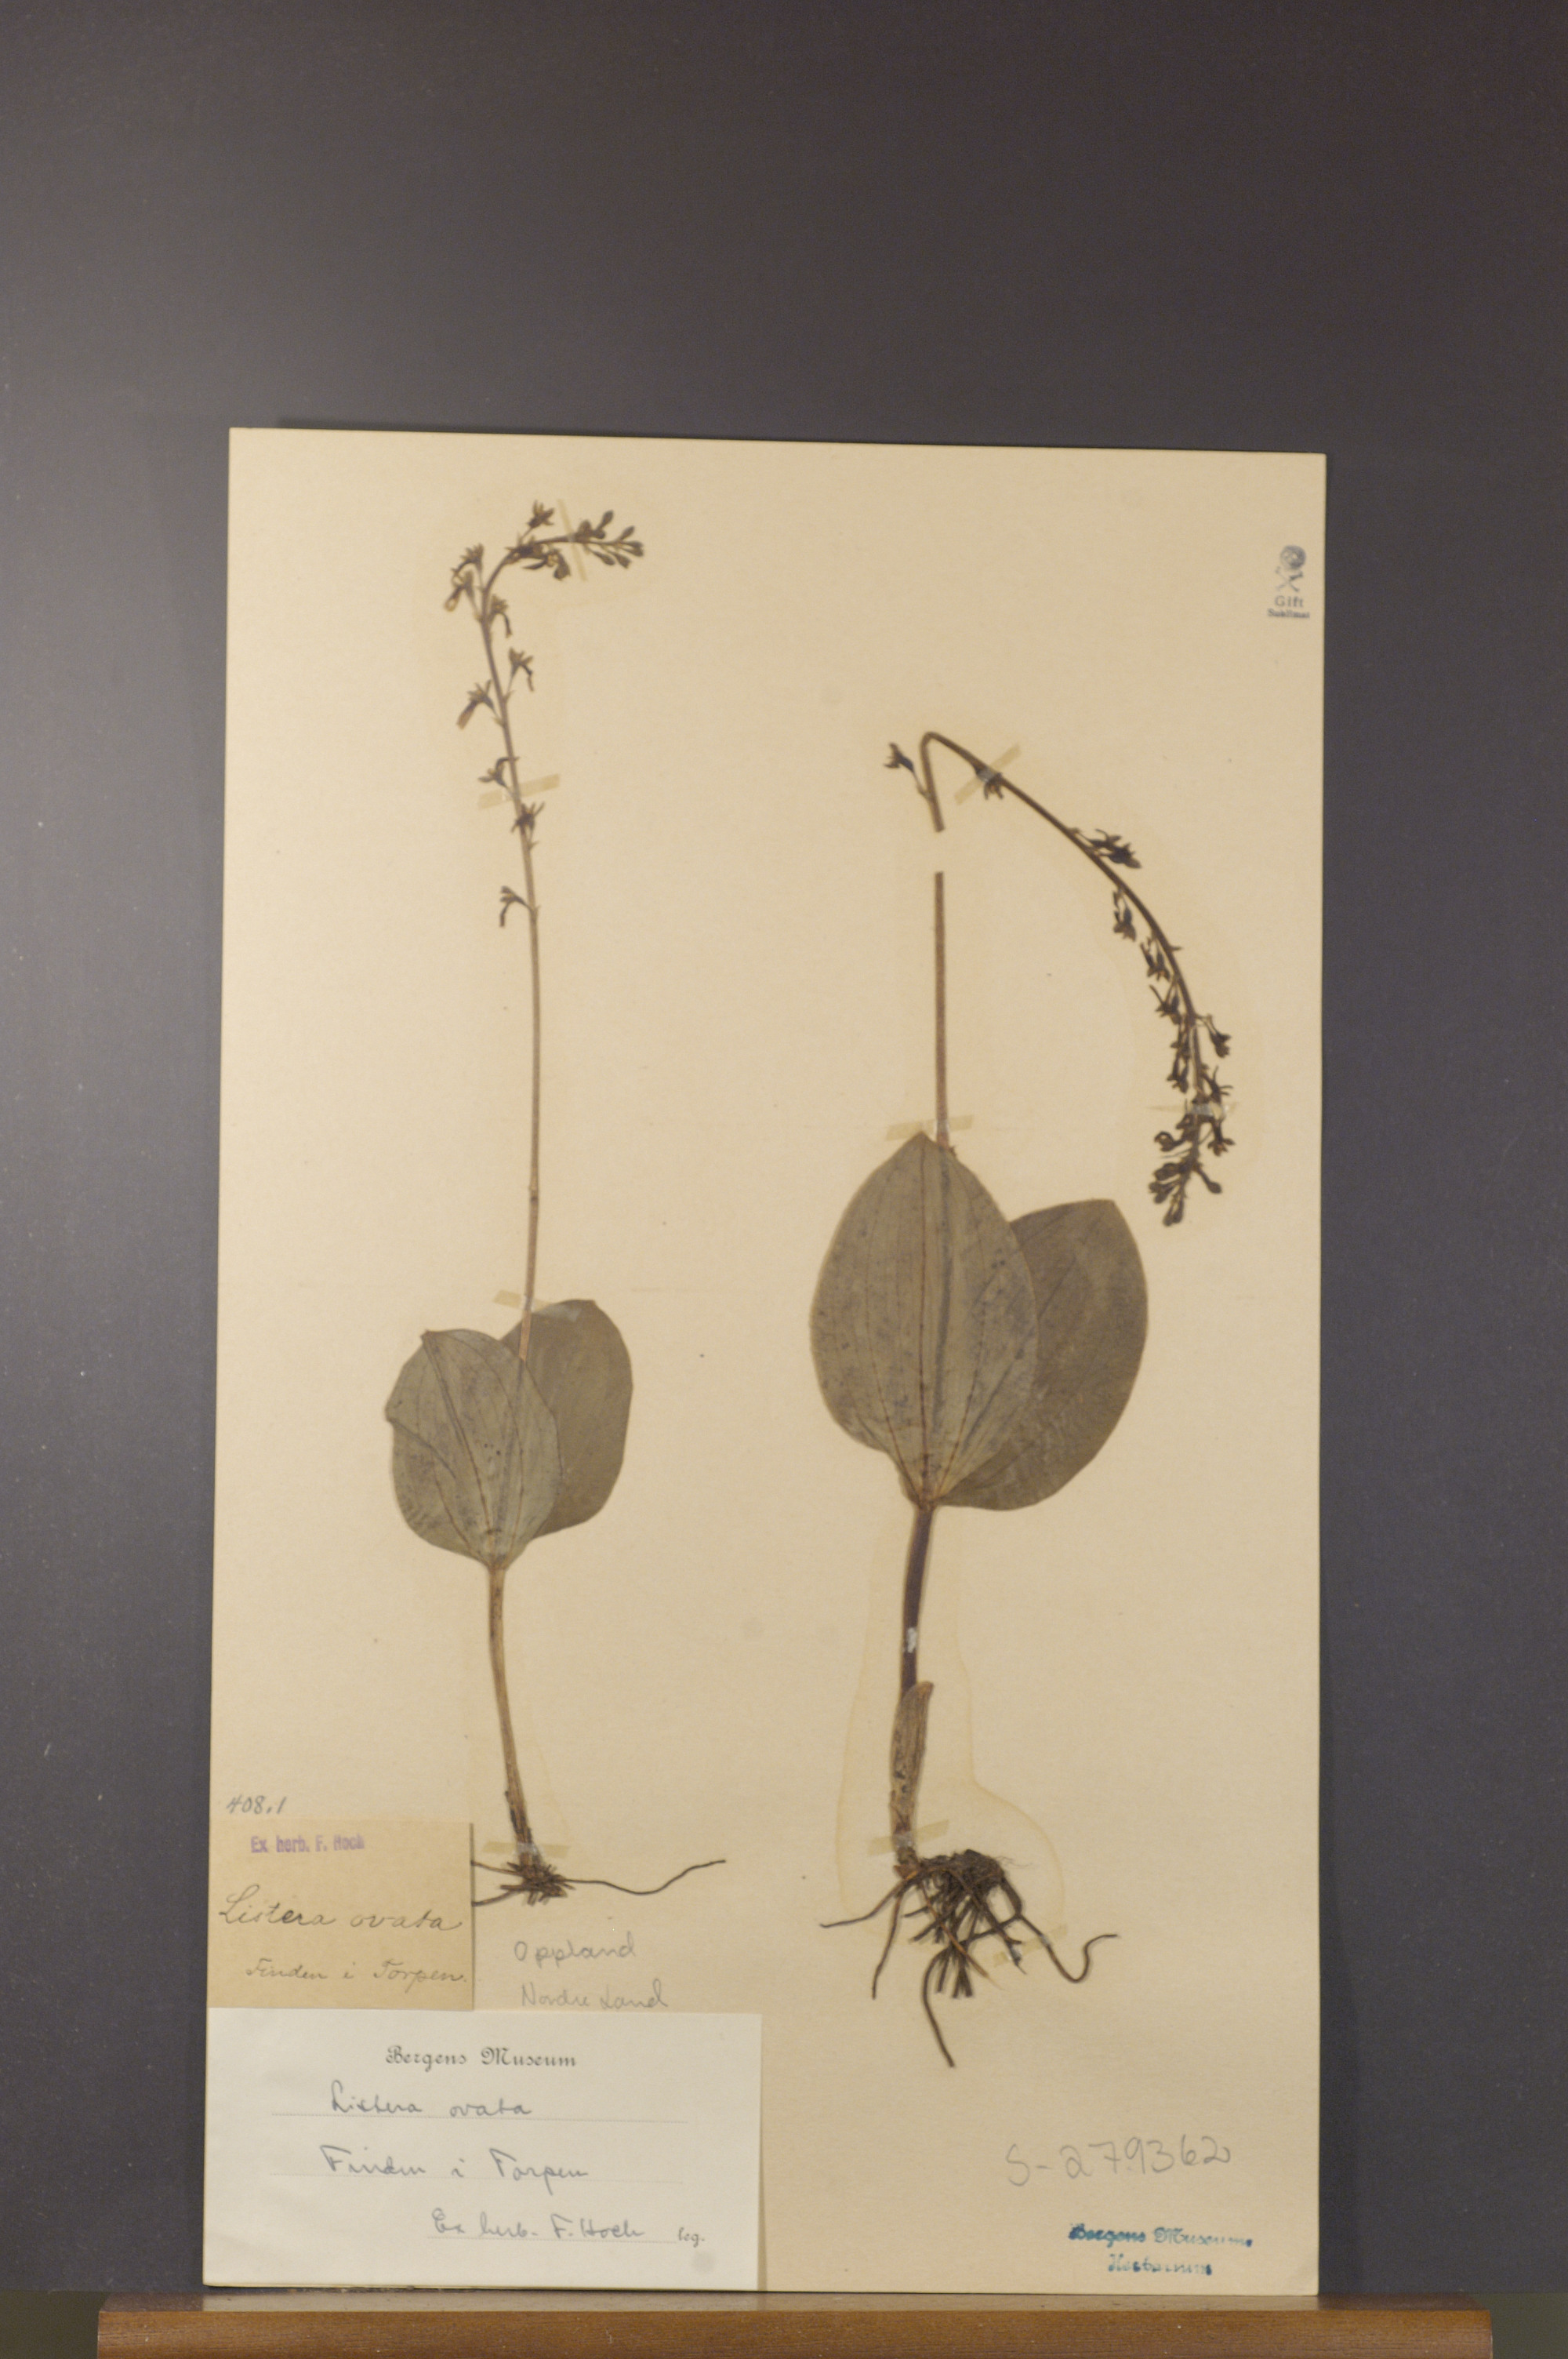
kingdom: Plantae
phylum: Tracheophyta
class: Liliopsida
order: Asparagales
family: Orchidaceae
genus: Neottia
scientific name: Neottia ovata
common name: Common twayblade
